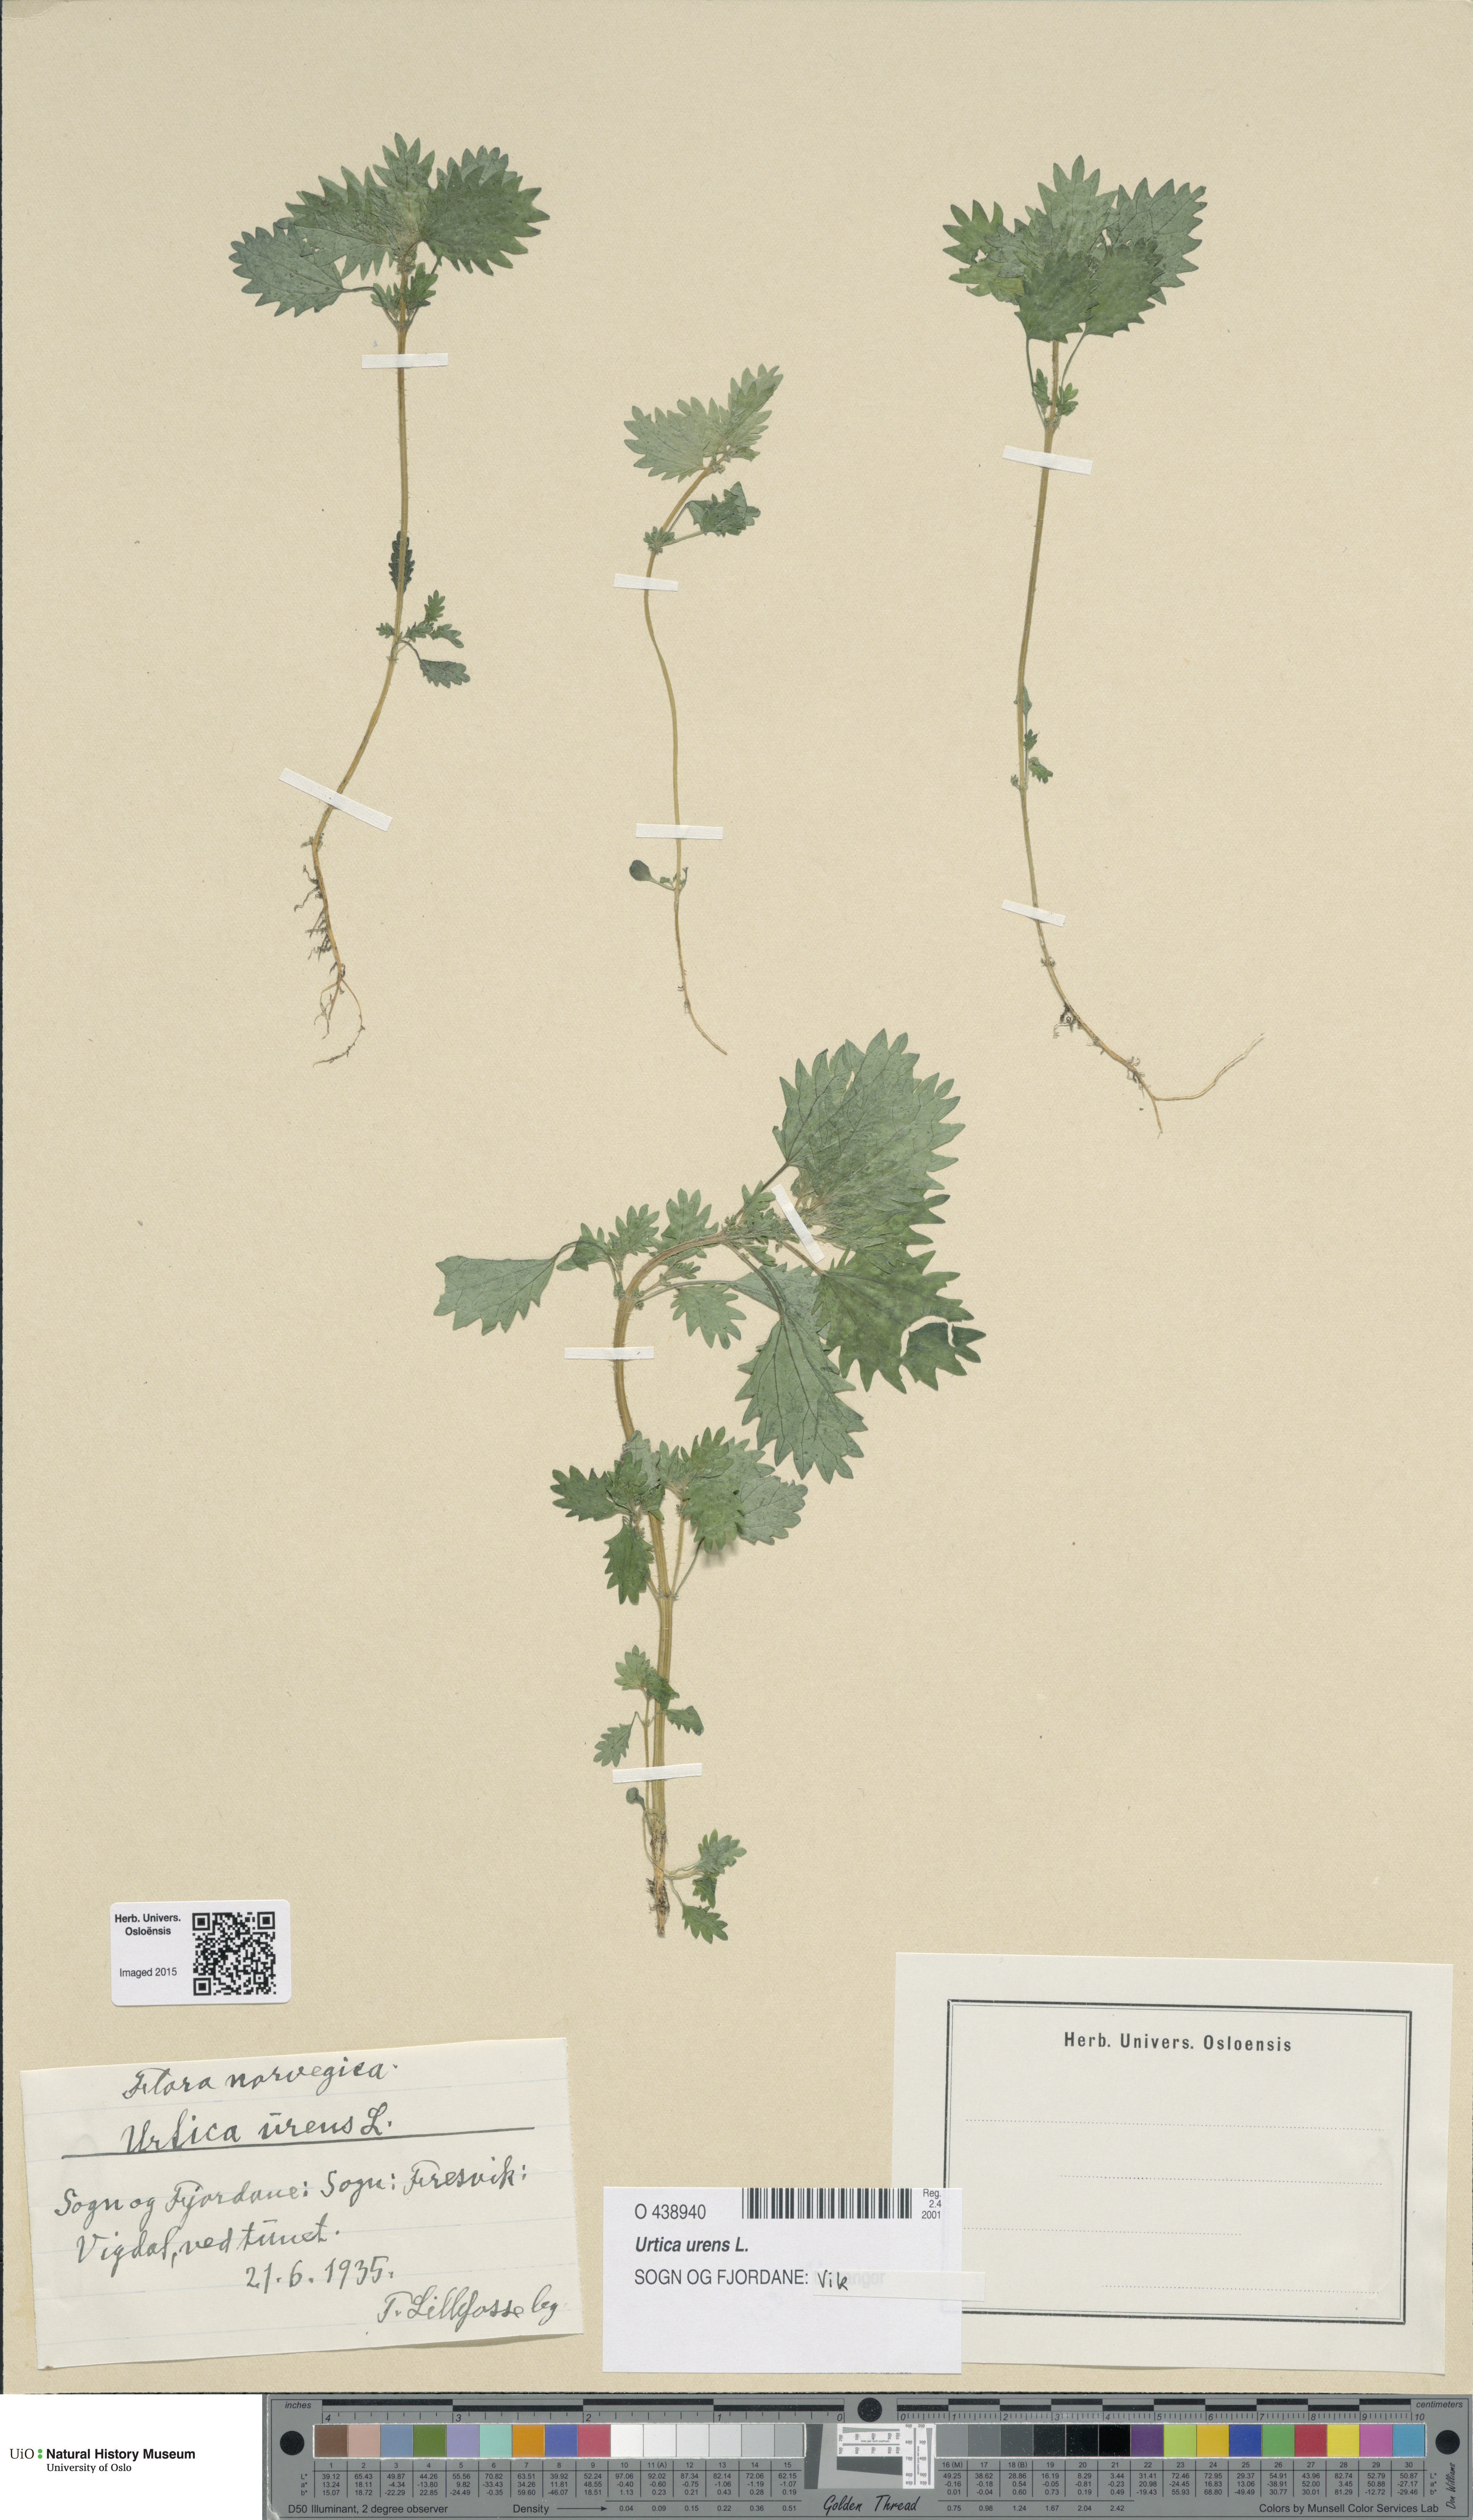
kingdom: Plantae
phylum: Tracheophyta
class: Magnoliopsida
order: Rosales
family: Urticaceae
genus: Urtica
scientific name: Urtica urens
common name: Dwarf nettle
